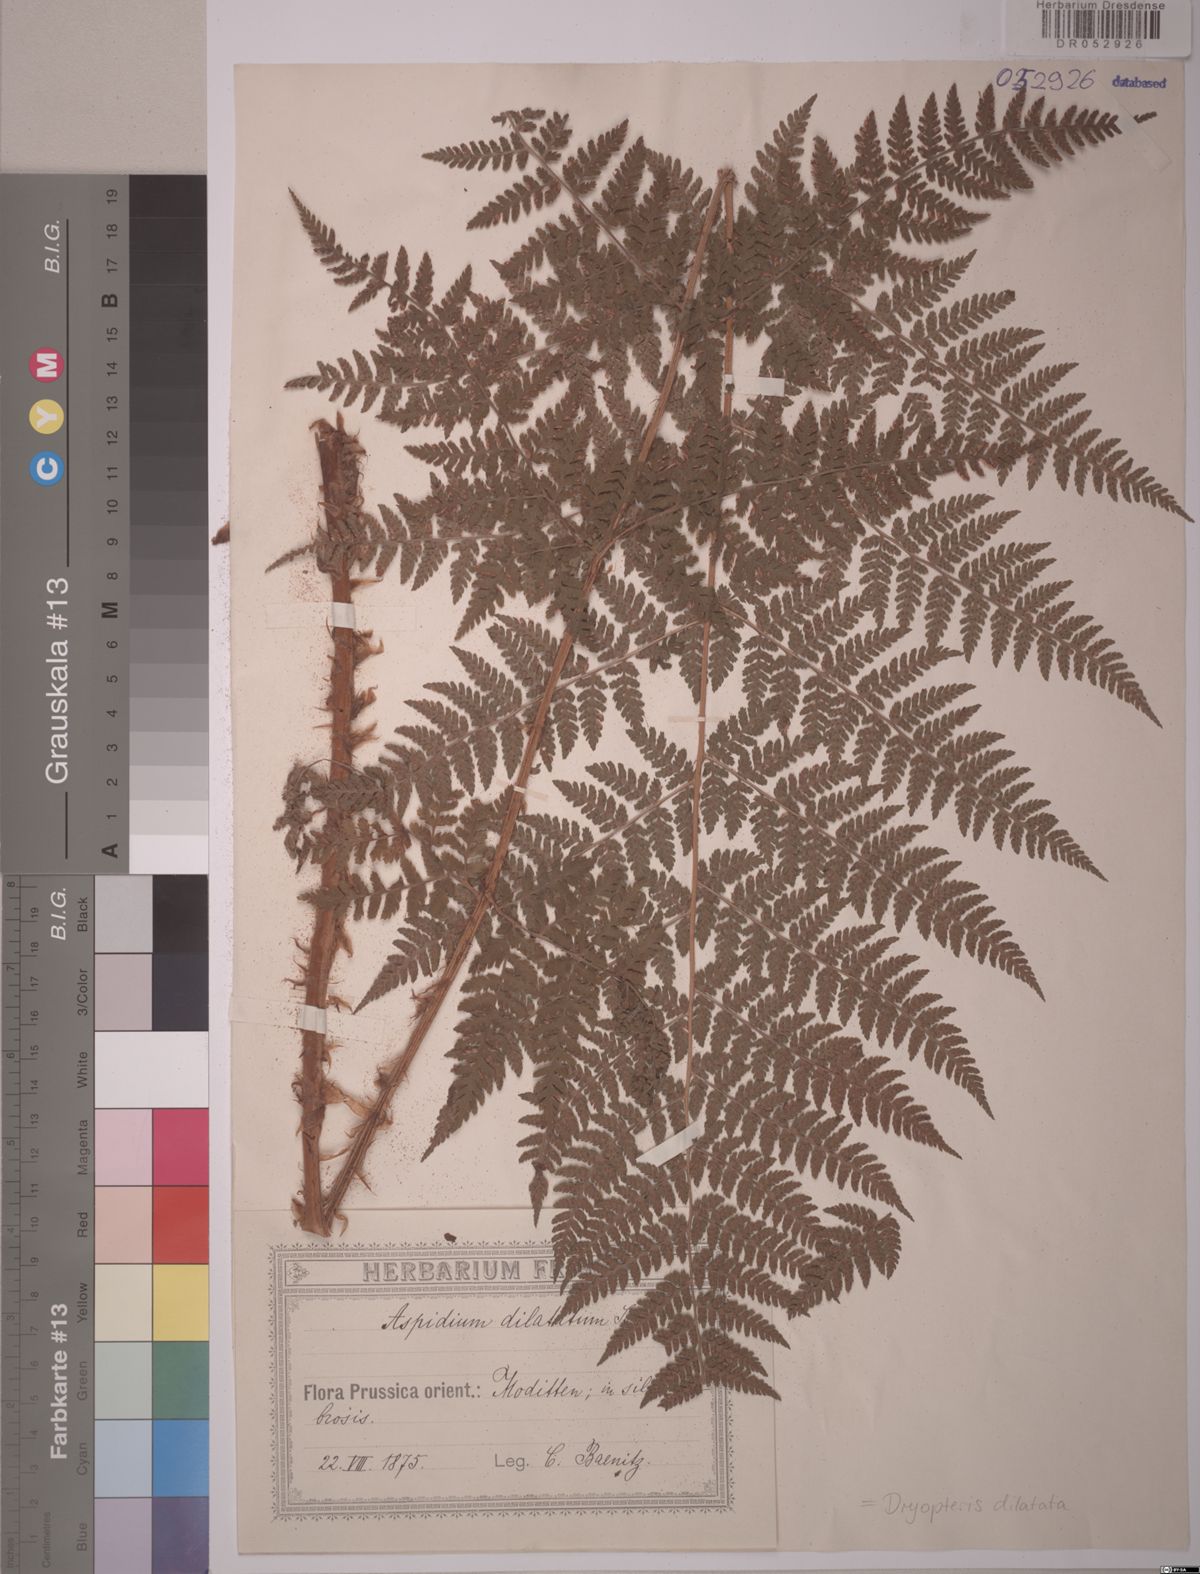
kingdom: Plantae
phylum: Tracheophyta
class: Polypodiopsida
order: Polypodiales
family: Dryopteridaceae
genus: Dryopteris
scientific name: Dryopteris dilatata
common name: Broad buckler-fern
